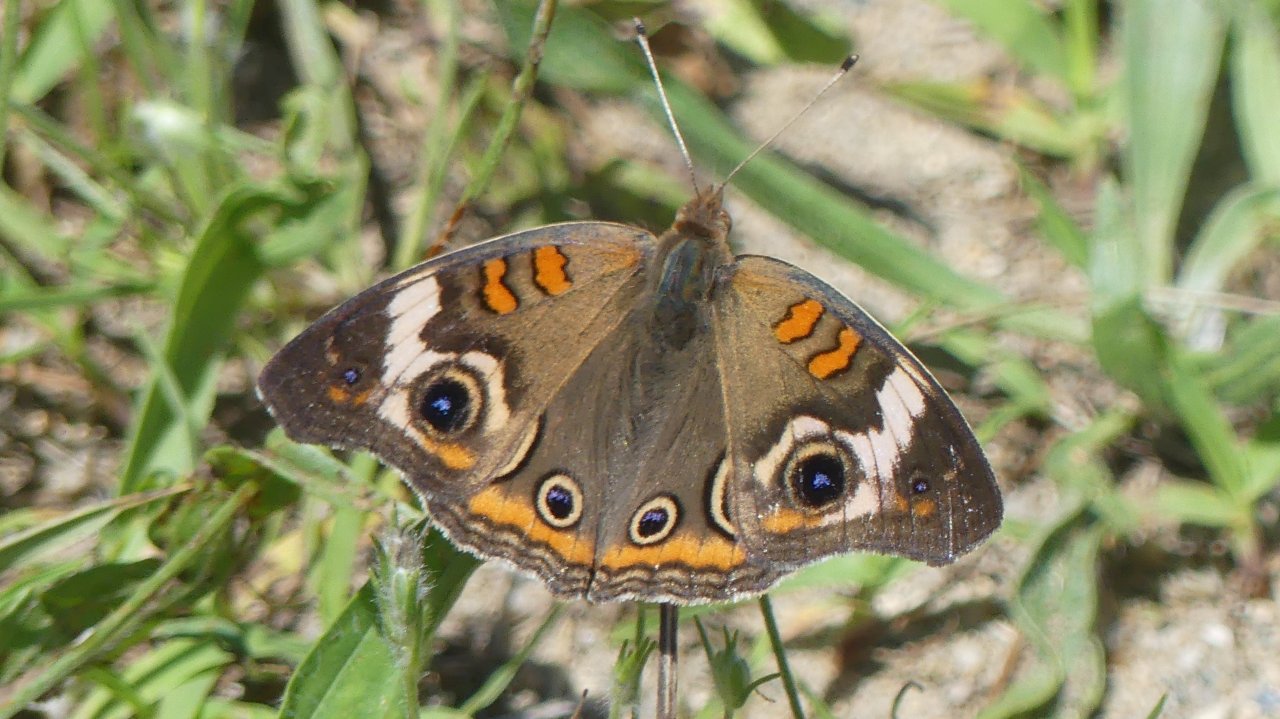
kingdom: Animalia
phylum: Arthropoda
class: Insecta
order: Lepidoptera
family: Nymphalidae
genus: Junonia
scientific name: Junonia coenia
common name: Common Buckeye
